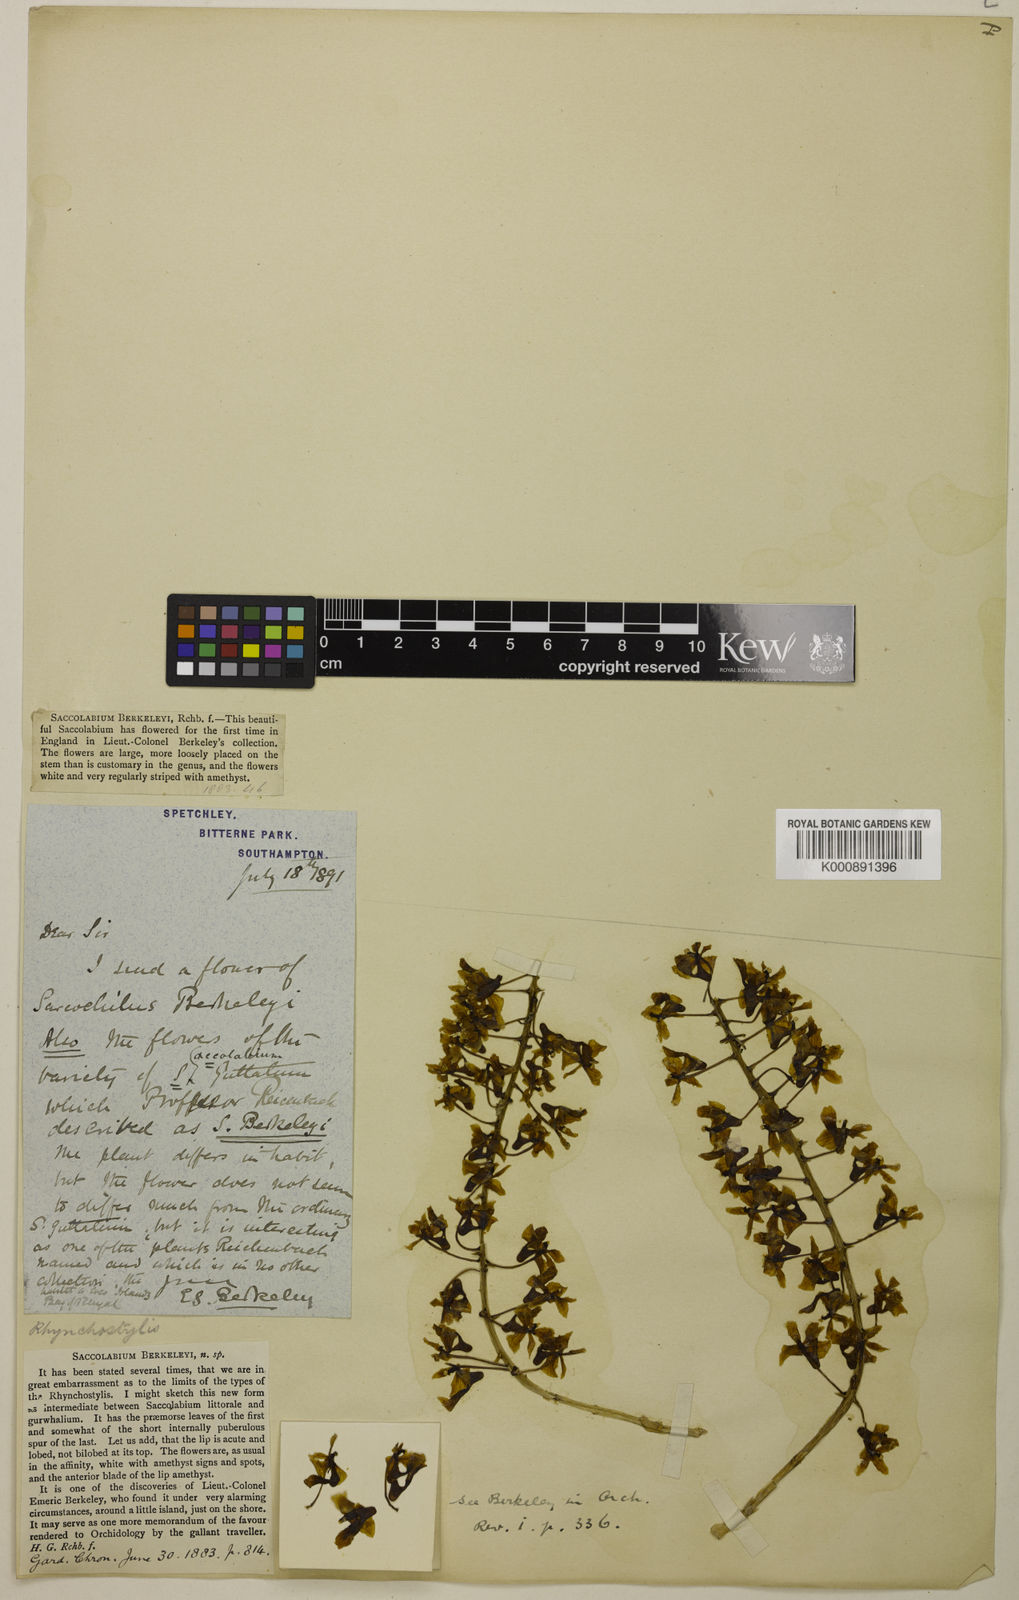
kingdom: Plantae
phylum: Tracheophyta
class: Liliopsida
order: Asparagales
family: Orchidaceae
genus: Rhynchostylis
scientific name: Rhynchostylis
